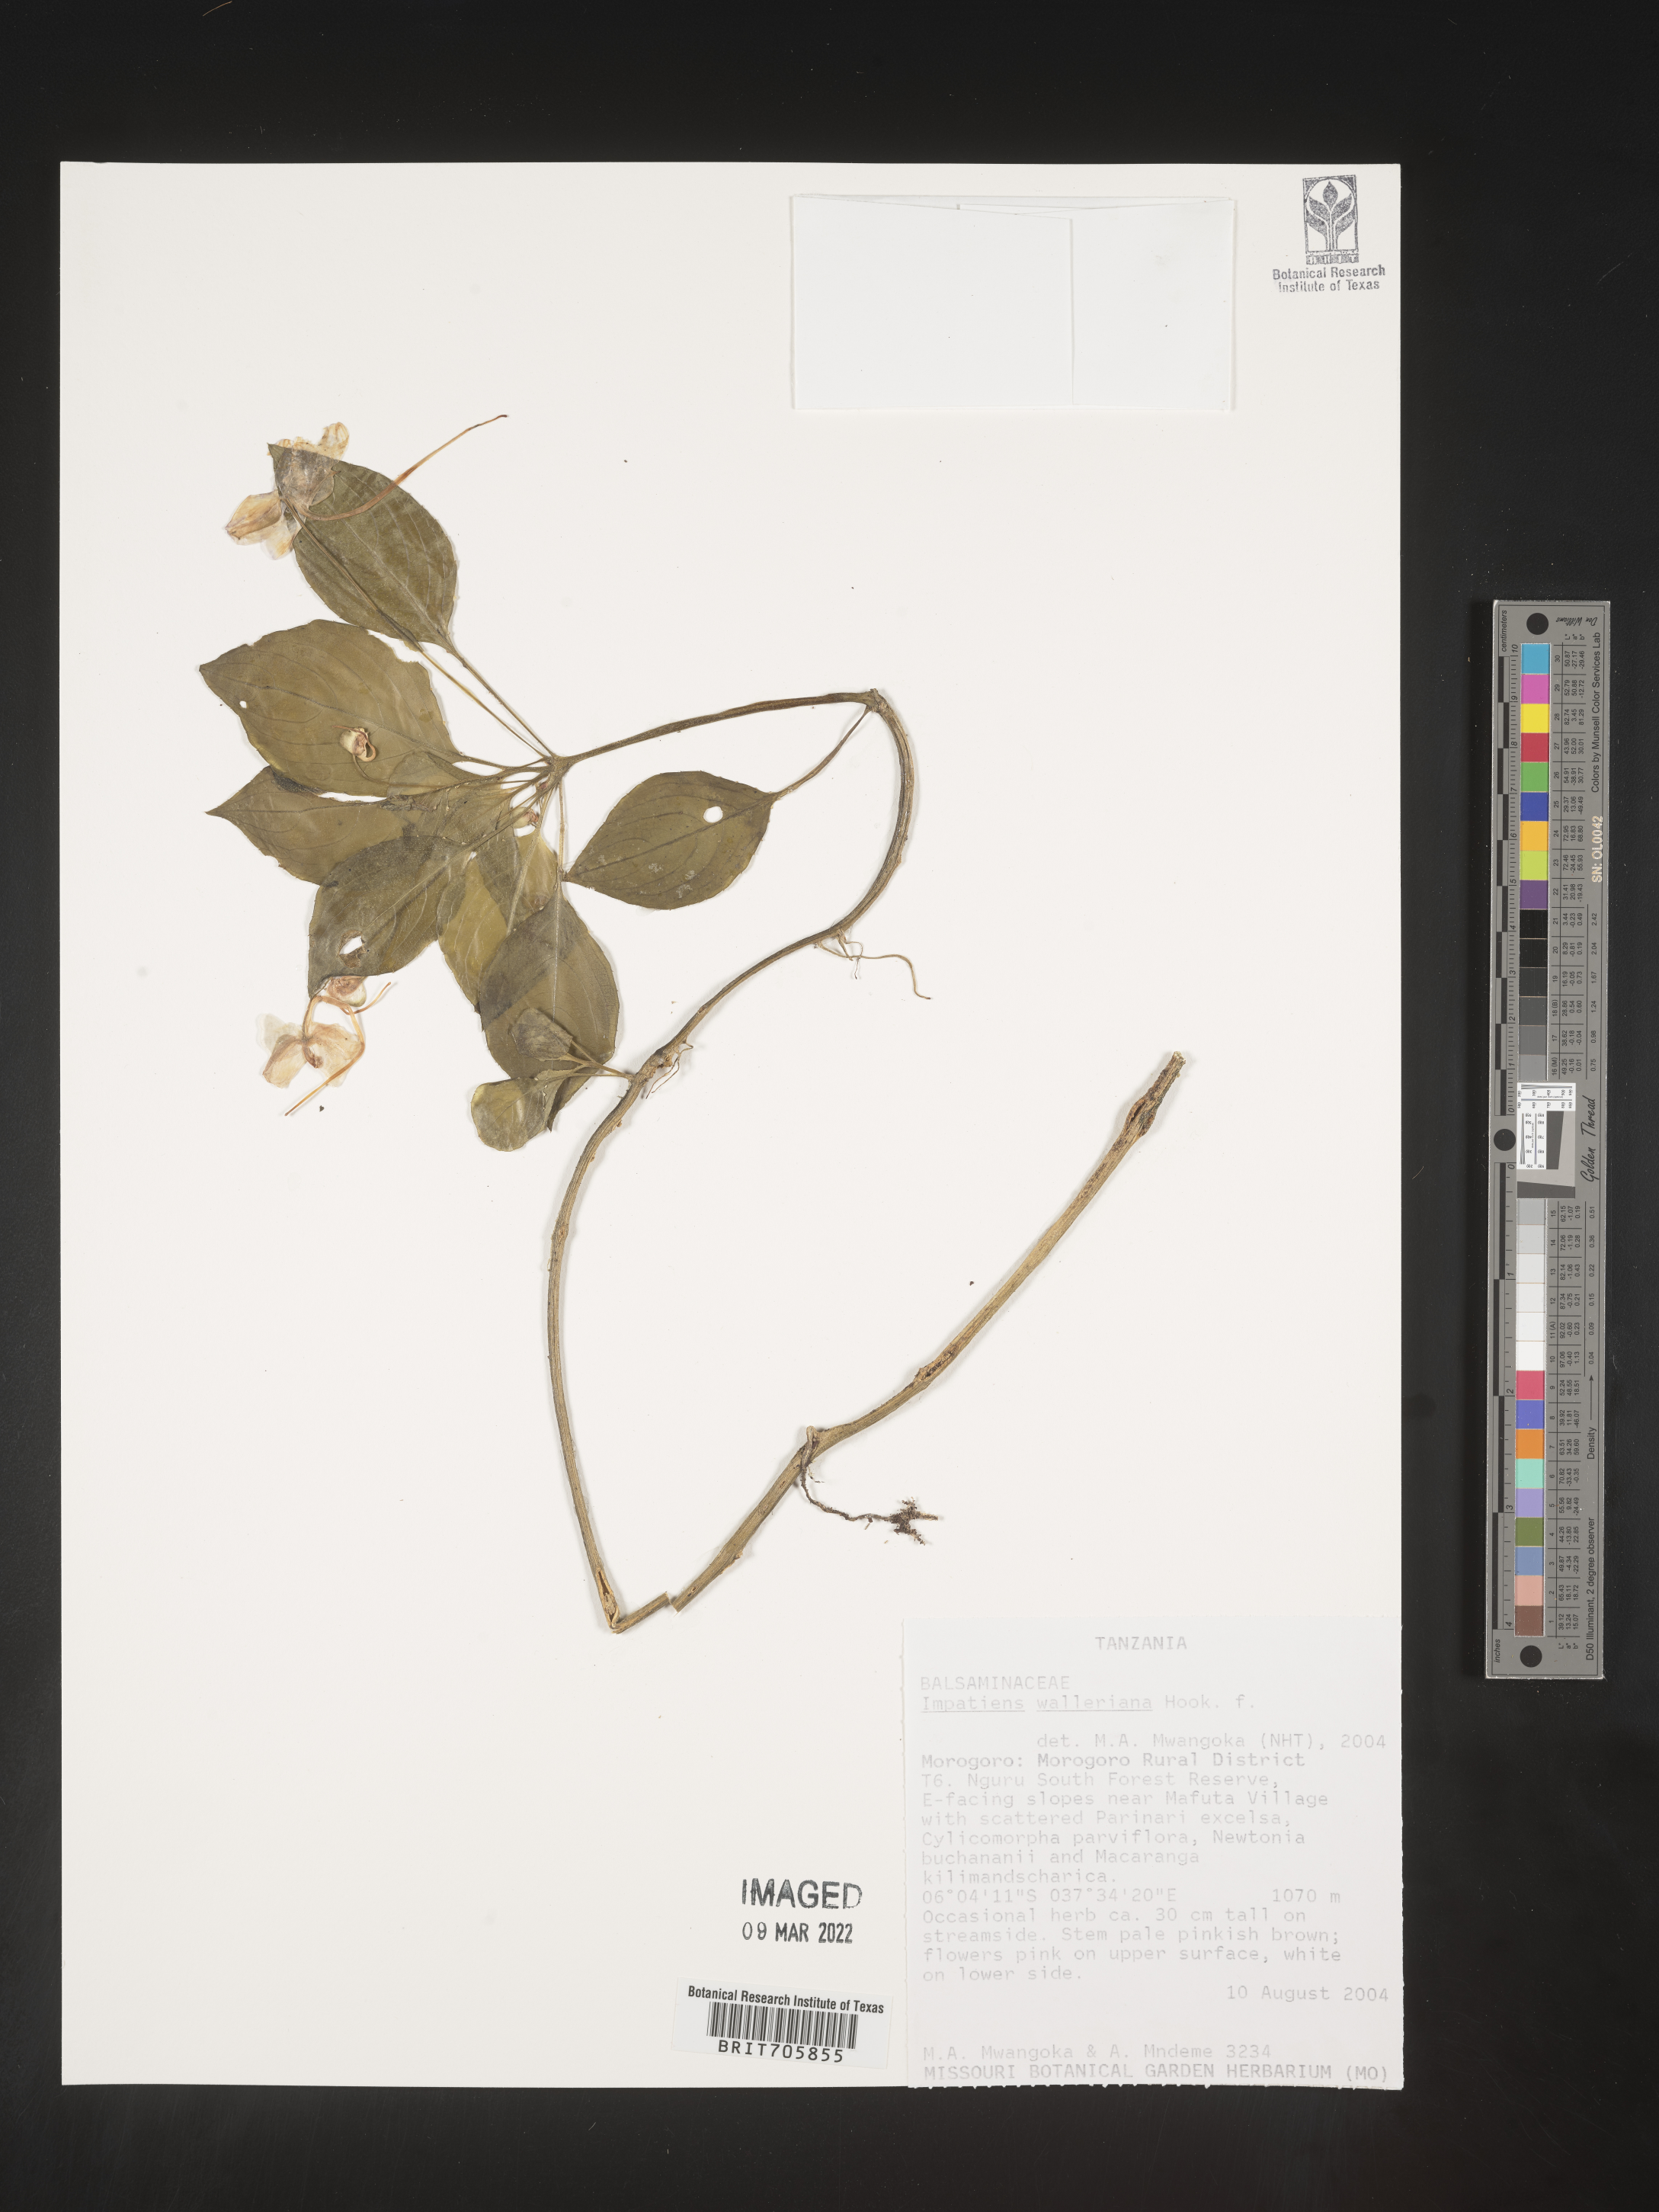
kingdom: Plantae
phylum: Tracheophyta
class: Magnoliopsida
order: Ericales
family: Balsaminaceae
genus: Impatiens
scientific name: Impatiens
